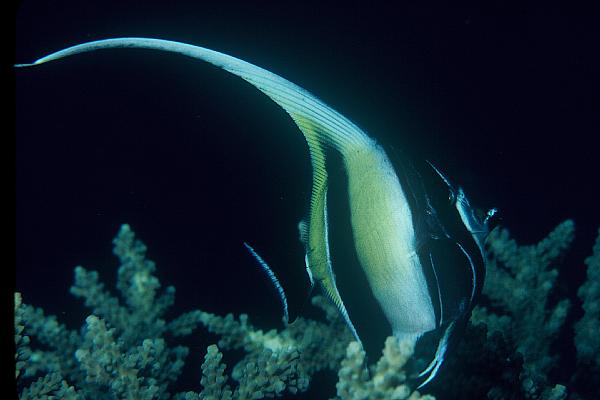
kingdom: Animalia
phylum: Chordata
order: Perciformes
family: Zanclidae
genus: Zanclus
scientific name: Zanclus cornutus
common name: Moorish idol
